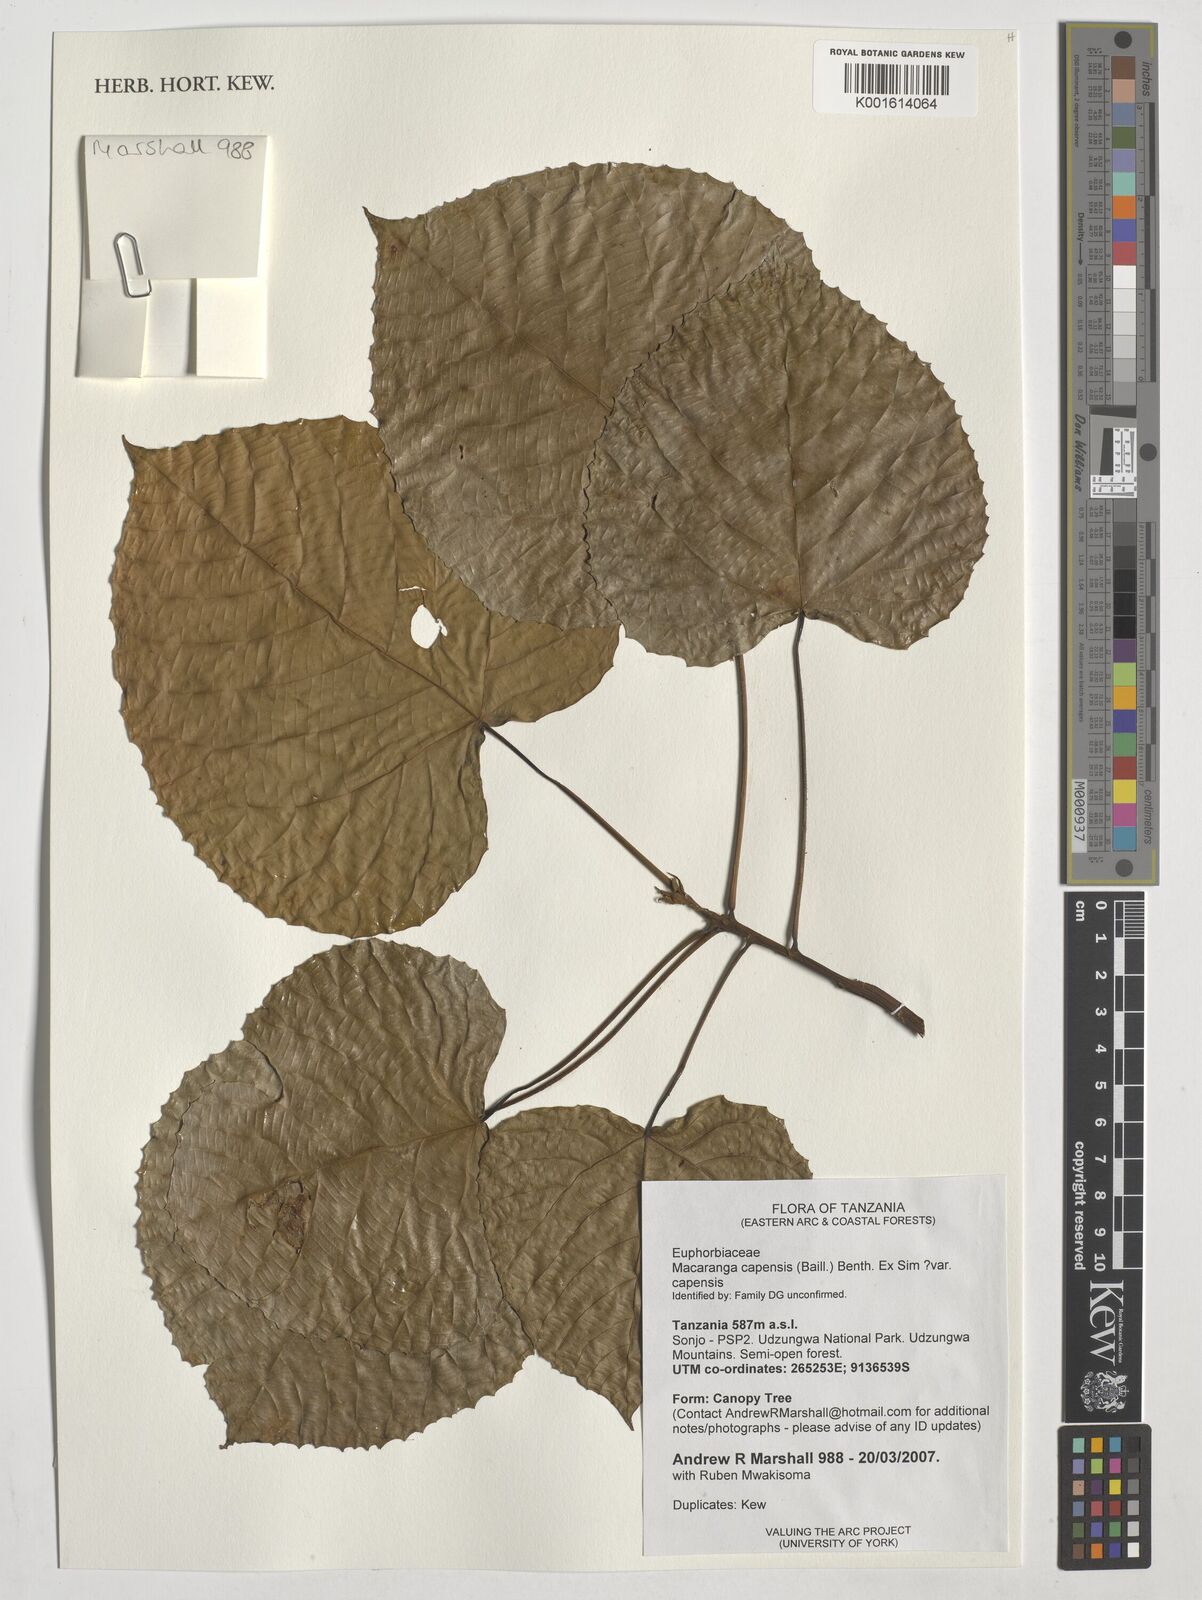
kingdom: Plantae
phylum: Tracheophyta
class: Magnoliopsida
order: Malpighiales
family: Euphorbiaceae
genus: Macaranga
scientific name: Macaranga capensis
